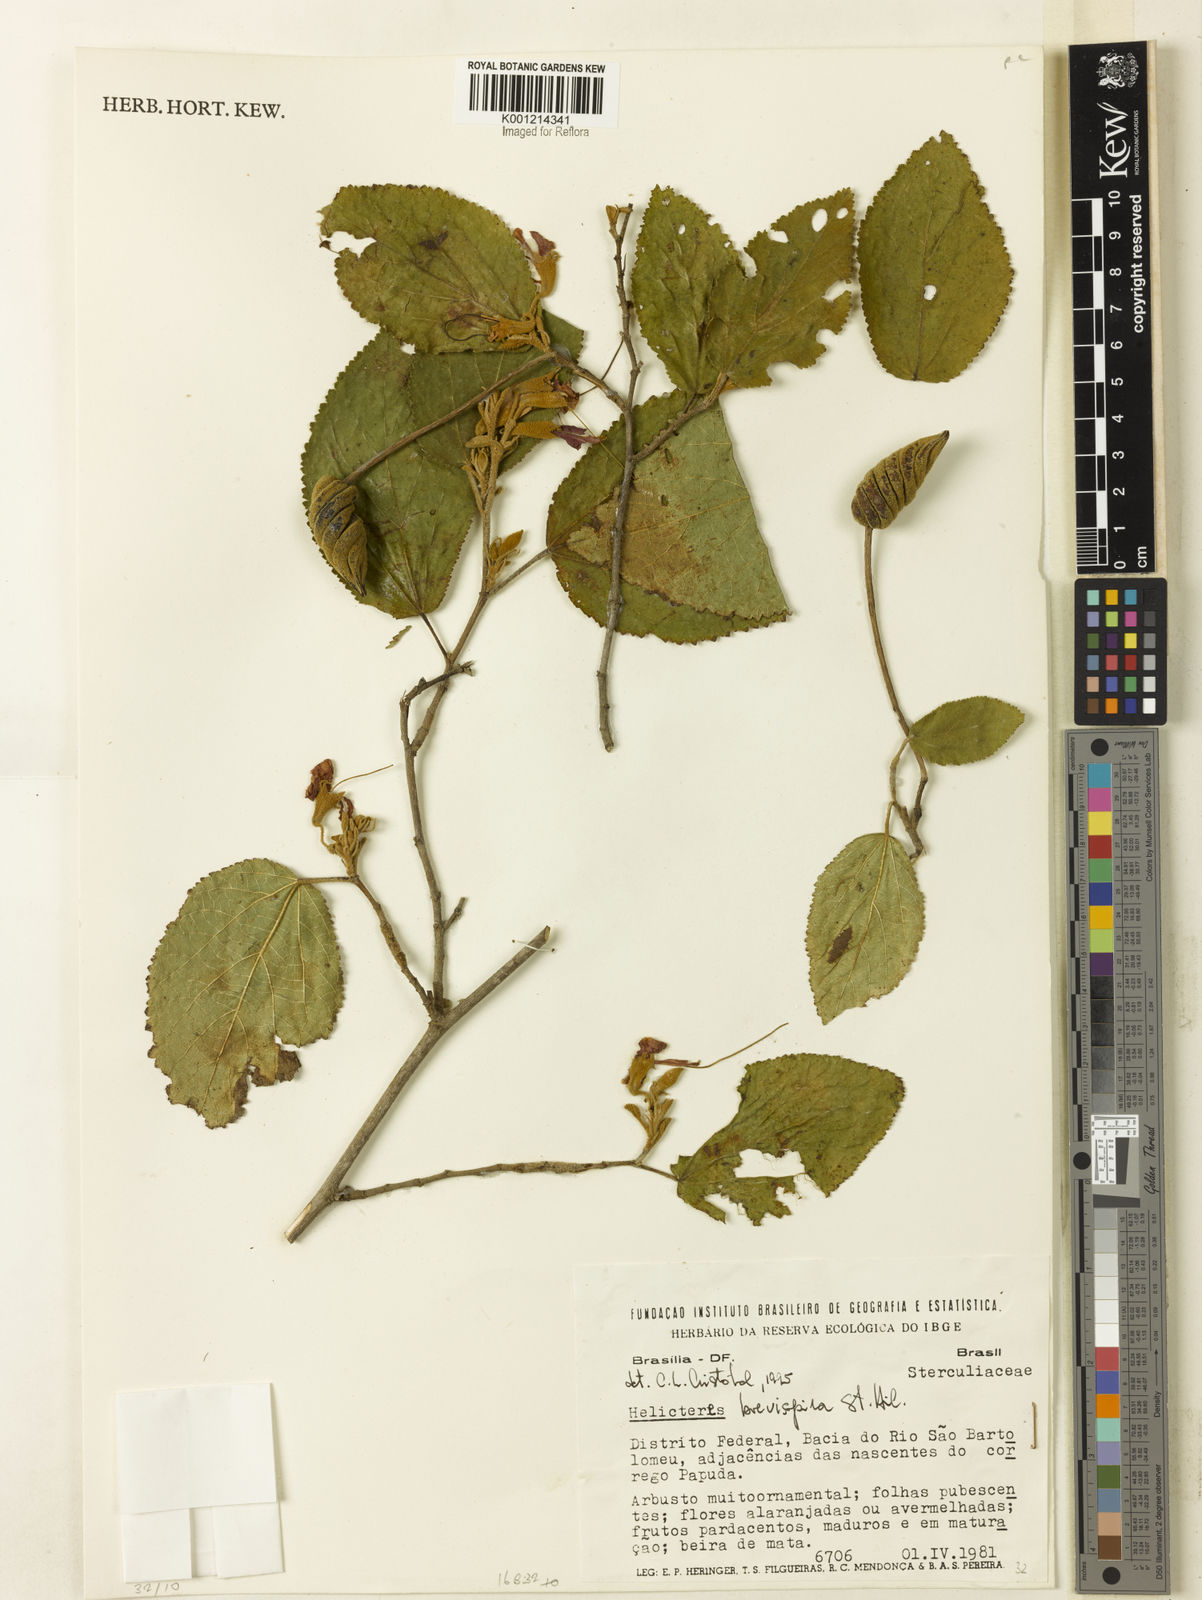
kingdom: Plantae
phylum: Tracheophyta
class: Magnoliopsida
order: Malvales
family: Malvaceae
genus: Helicteres
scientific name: Helicteres
